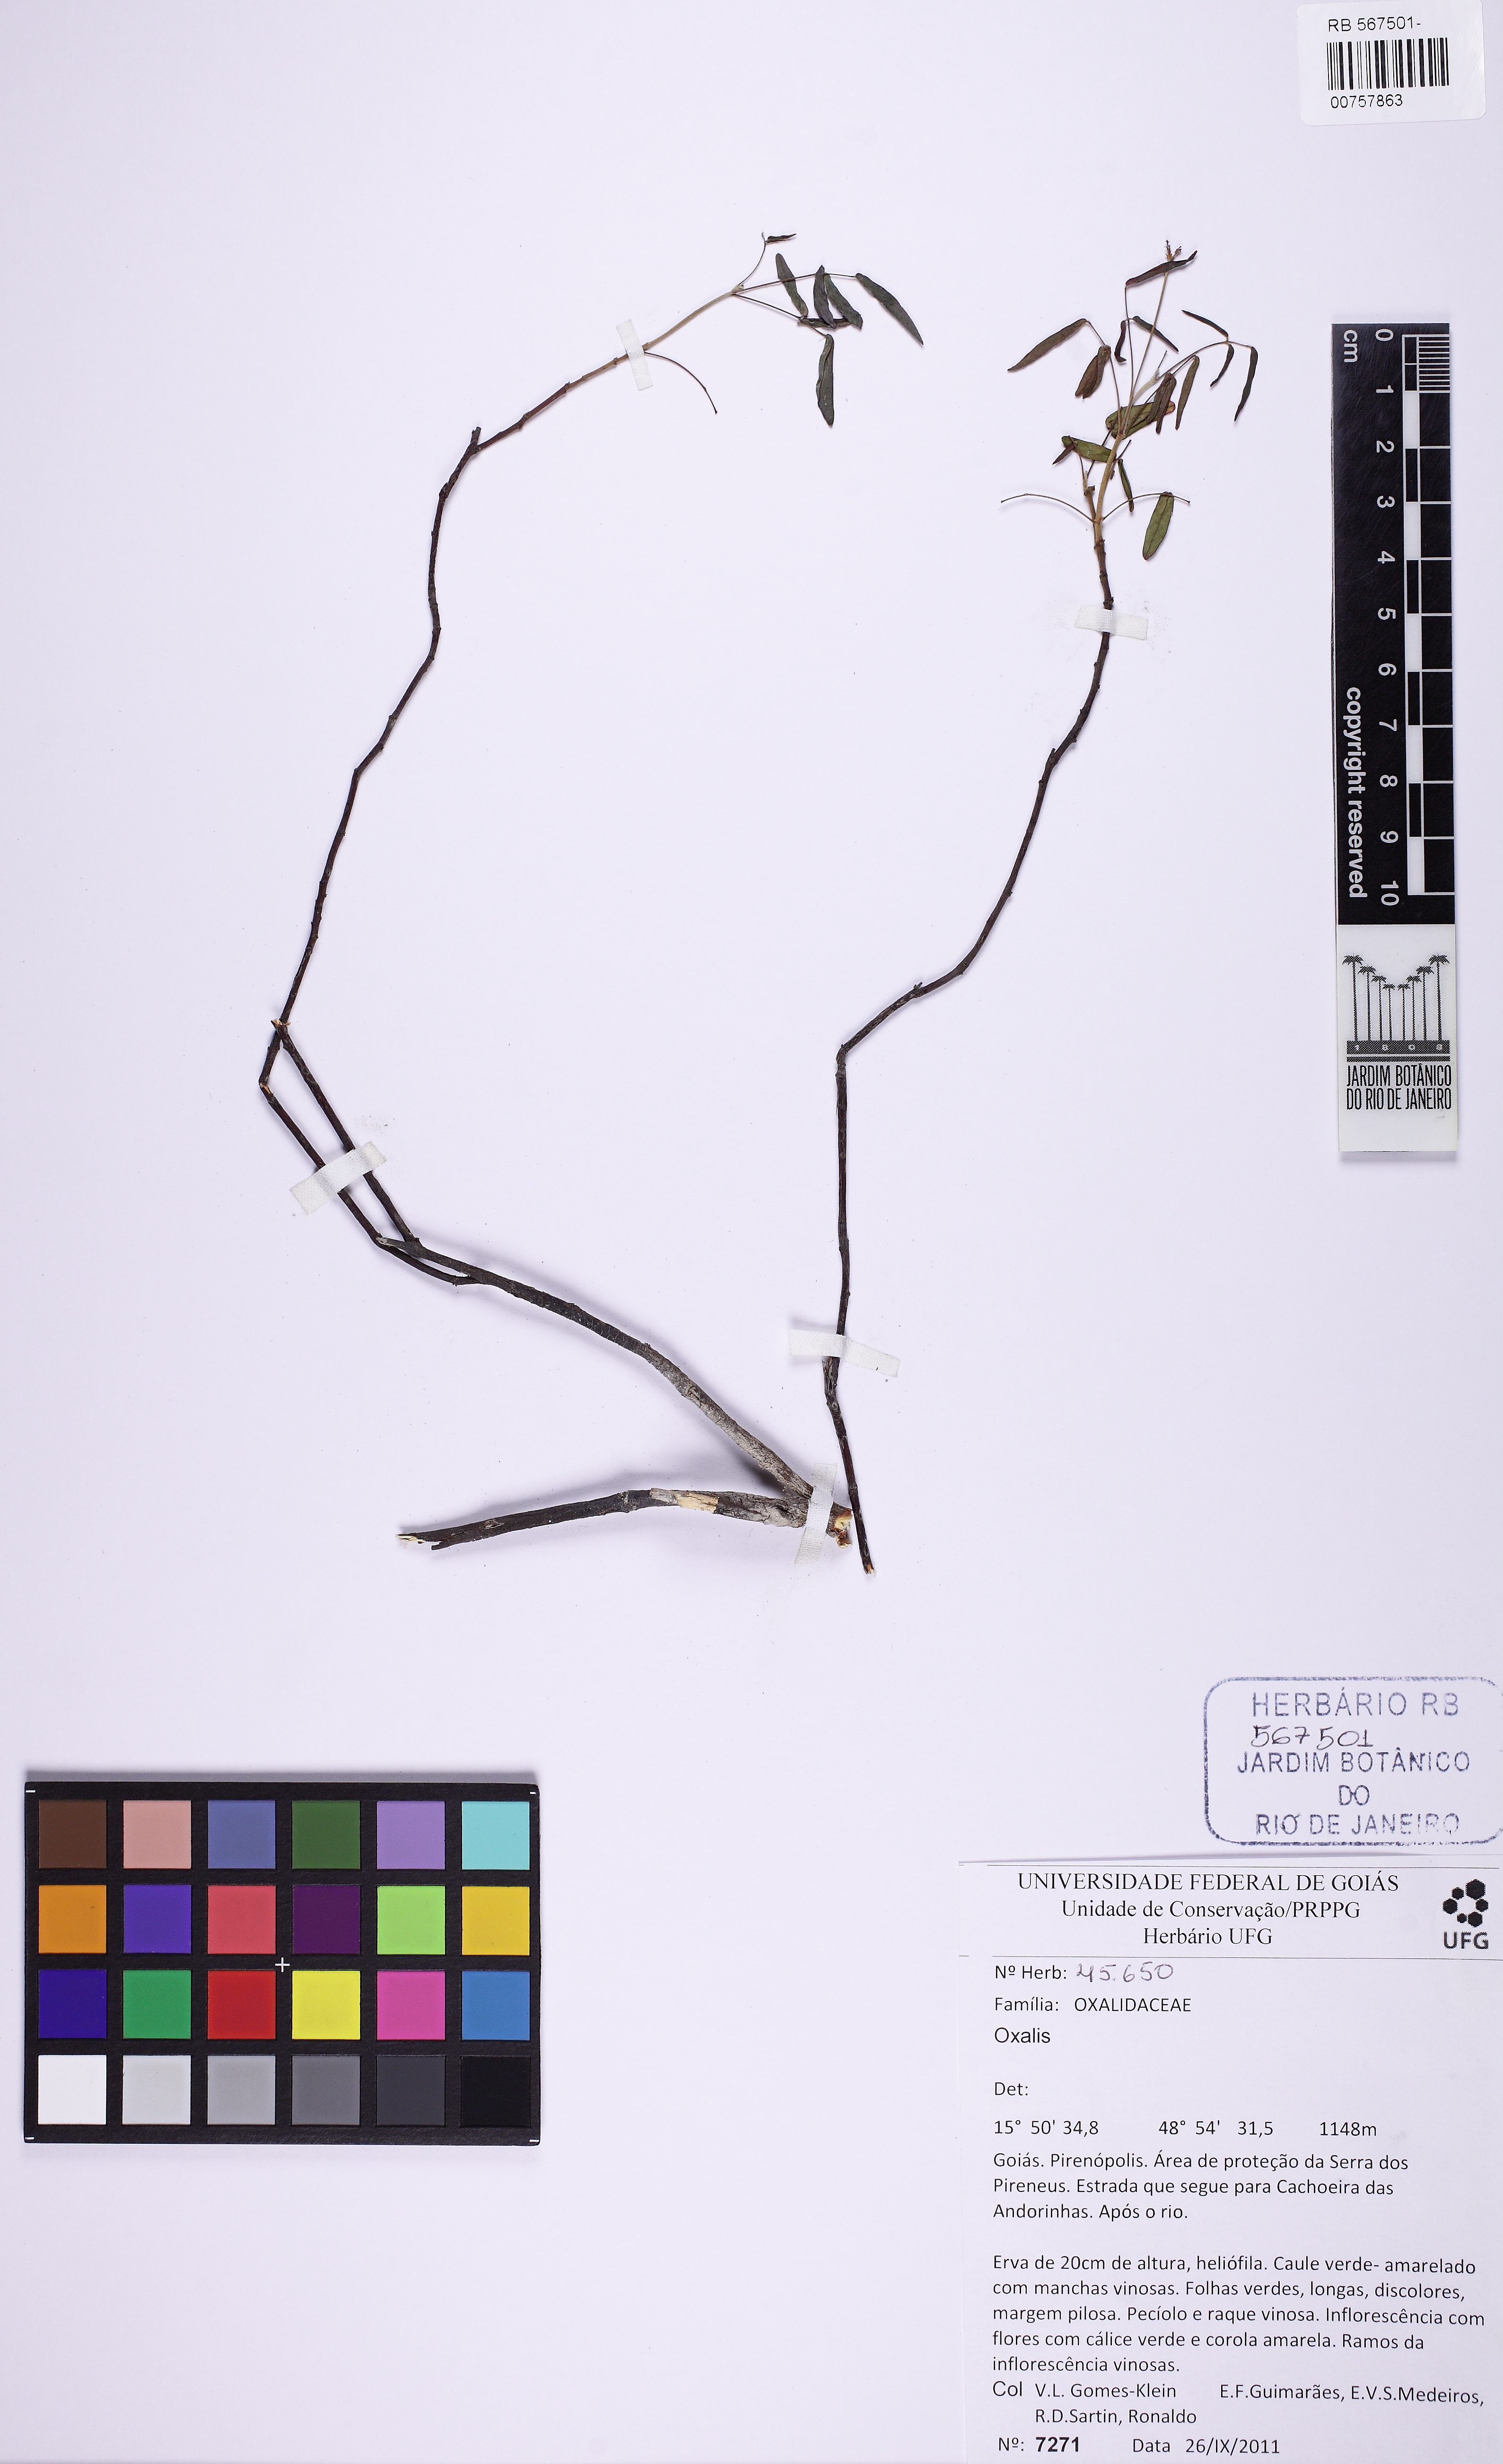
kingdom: Plantae
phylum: Tracheophyta
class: Magnoliopsida
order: Oxalidales
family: Oxalidaceae
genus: Oxalis
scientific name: Oxalis pyrenea
